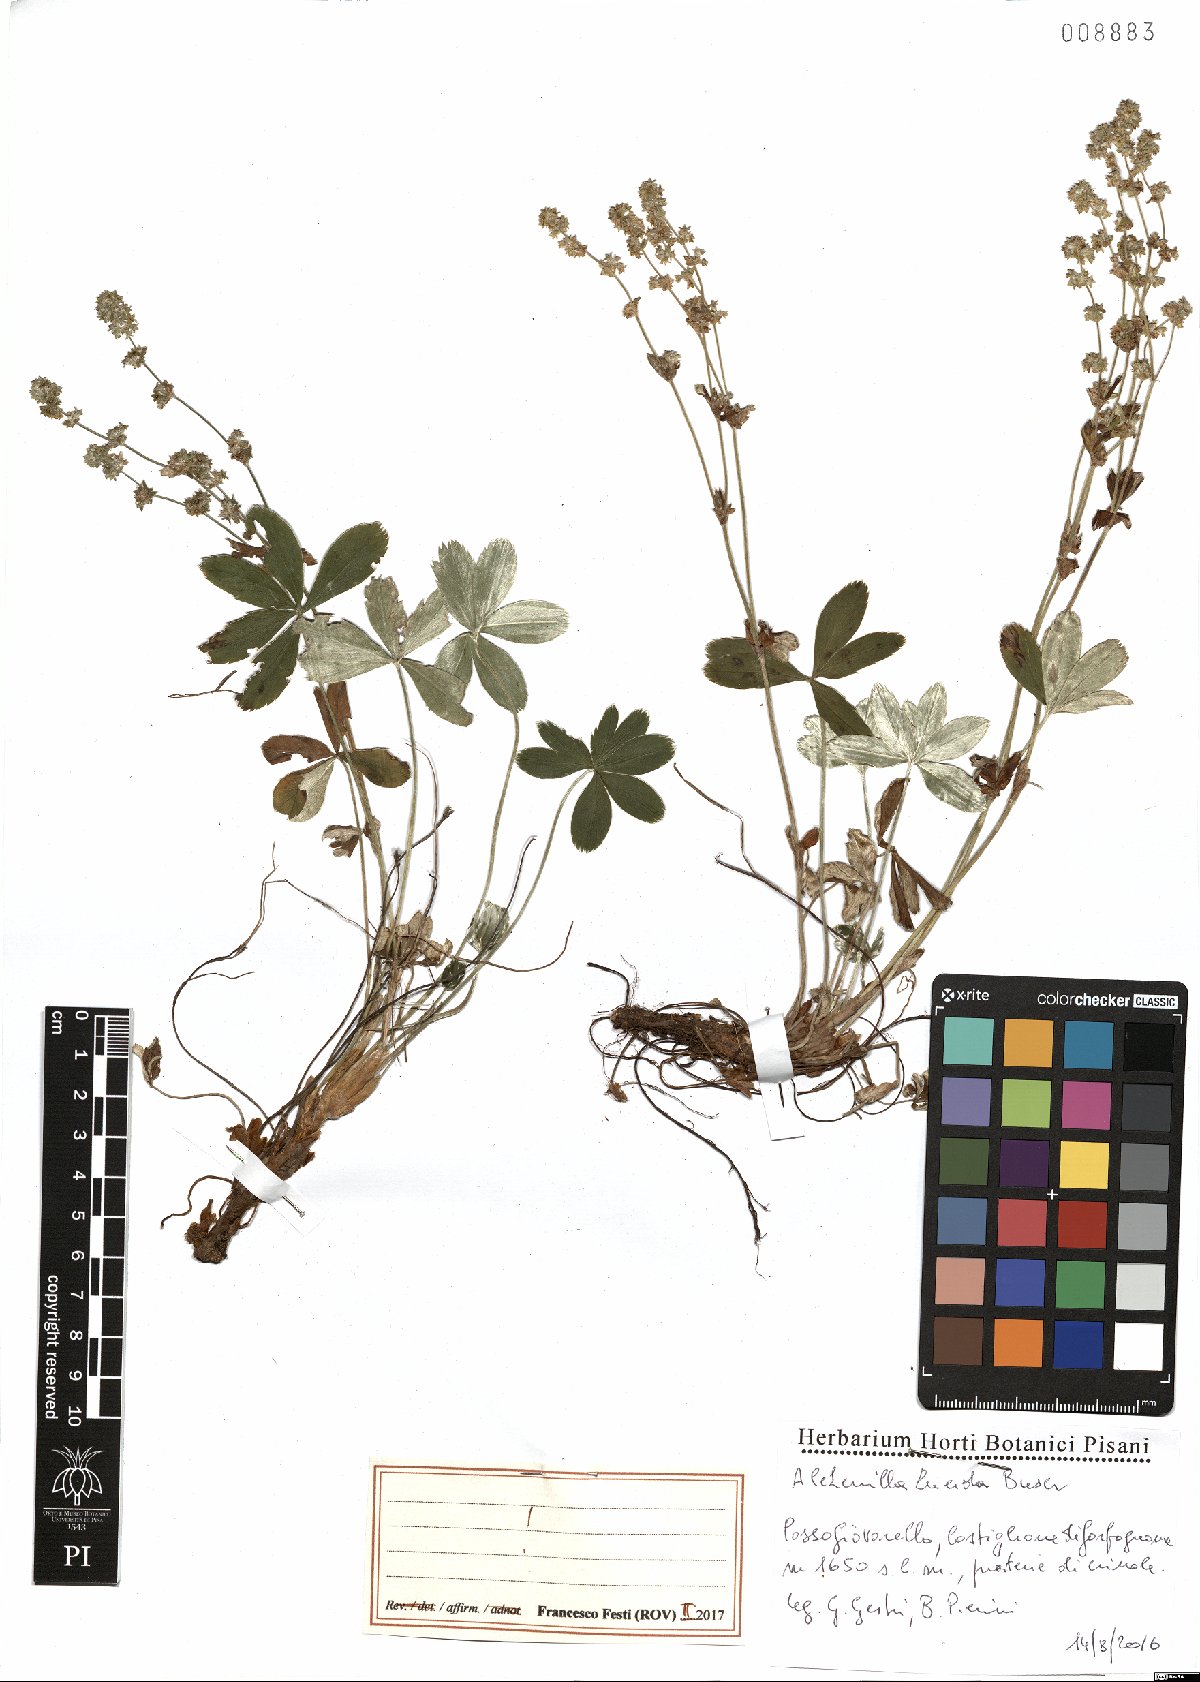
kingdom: Plantae
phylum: Tracheophyta
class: Magnoliopsida
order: Rosales
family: Rosaceae
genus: Alchemilla
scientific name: Alchemilla lucida
